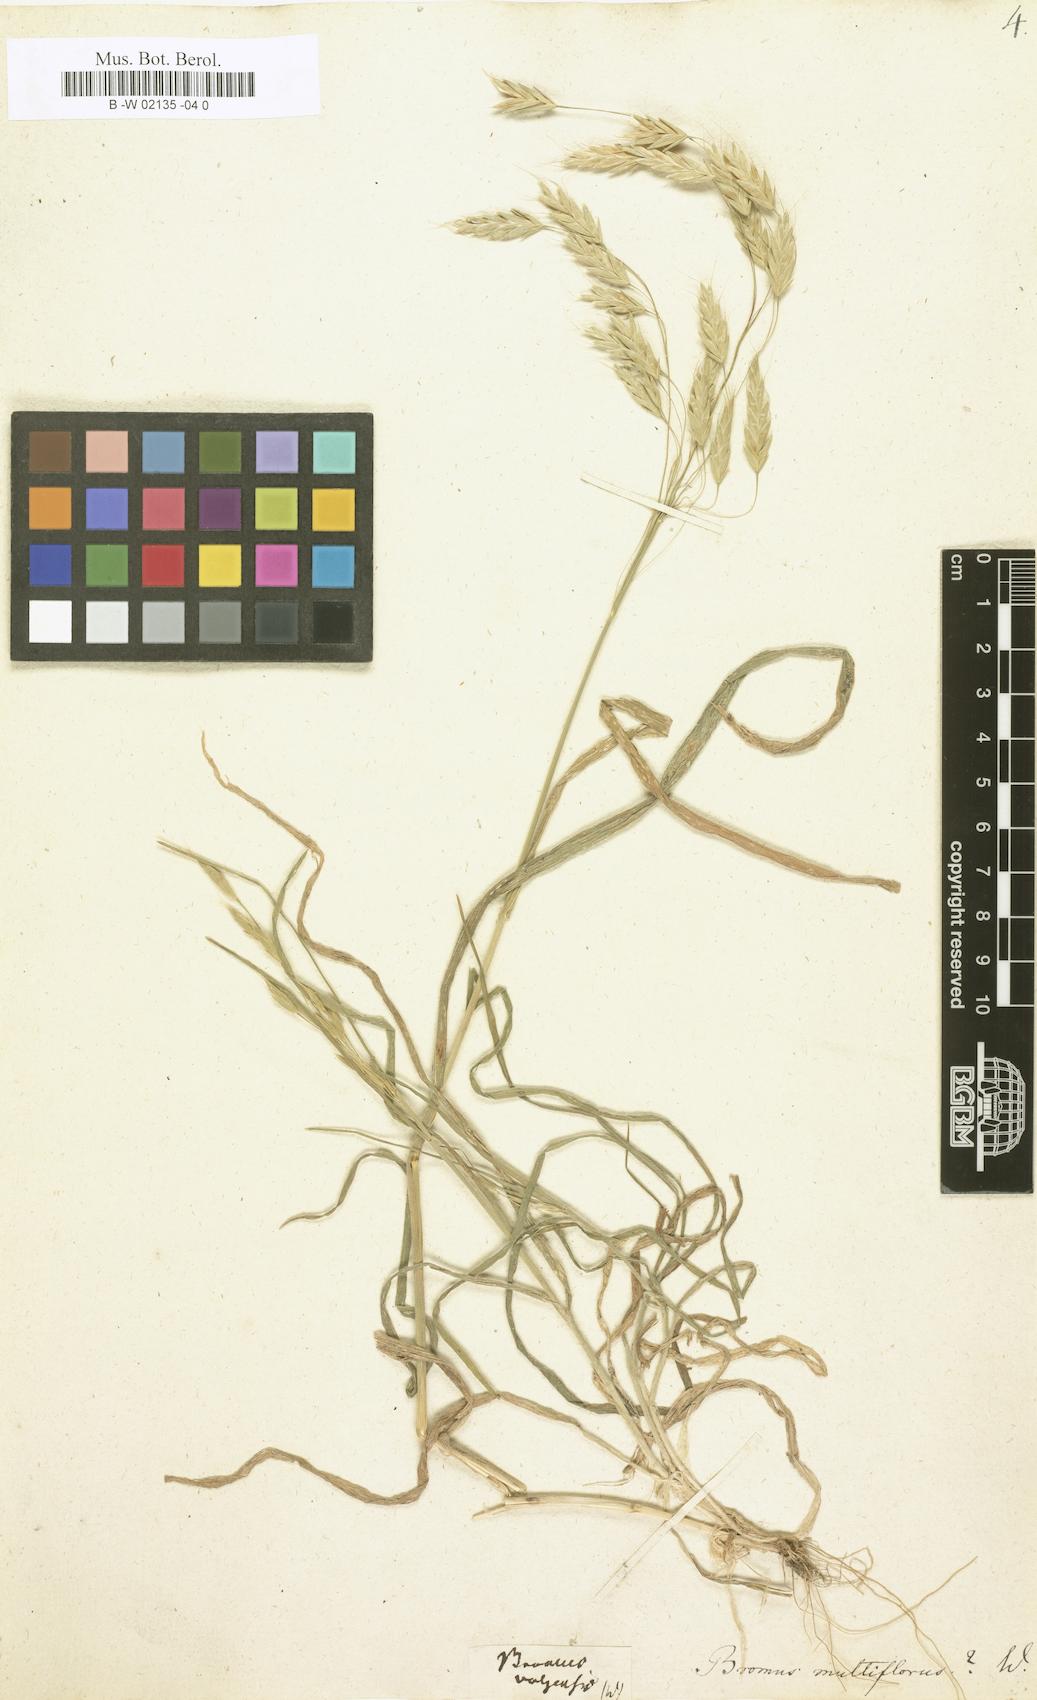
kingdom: Plantae
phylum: Tracheophyta
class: Liliopsida
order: Poales
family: Poaceae
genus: Bromus
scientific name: Bromus arvensis
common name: Field brome
